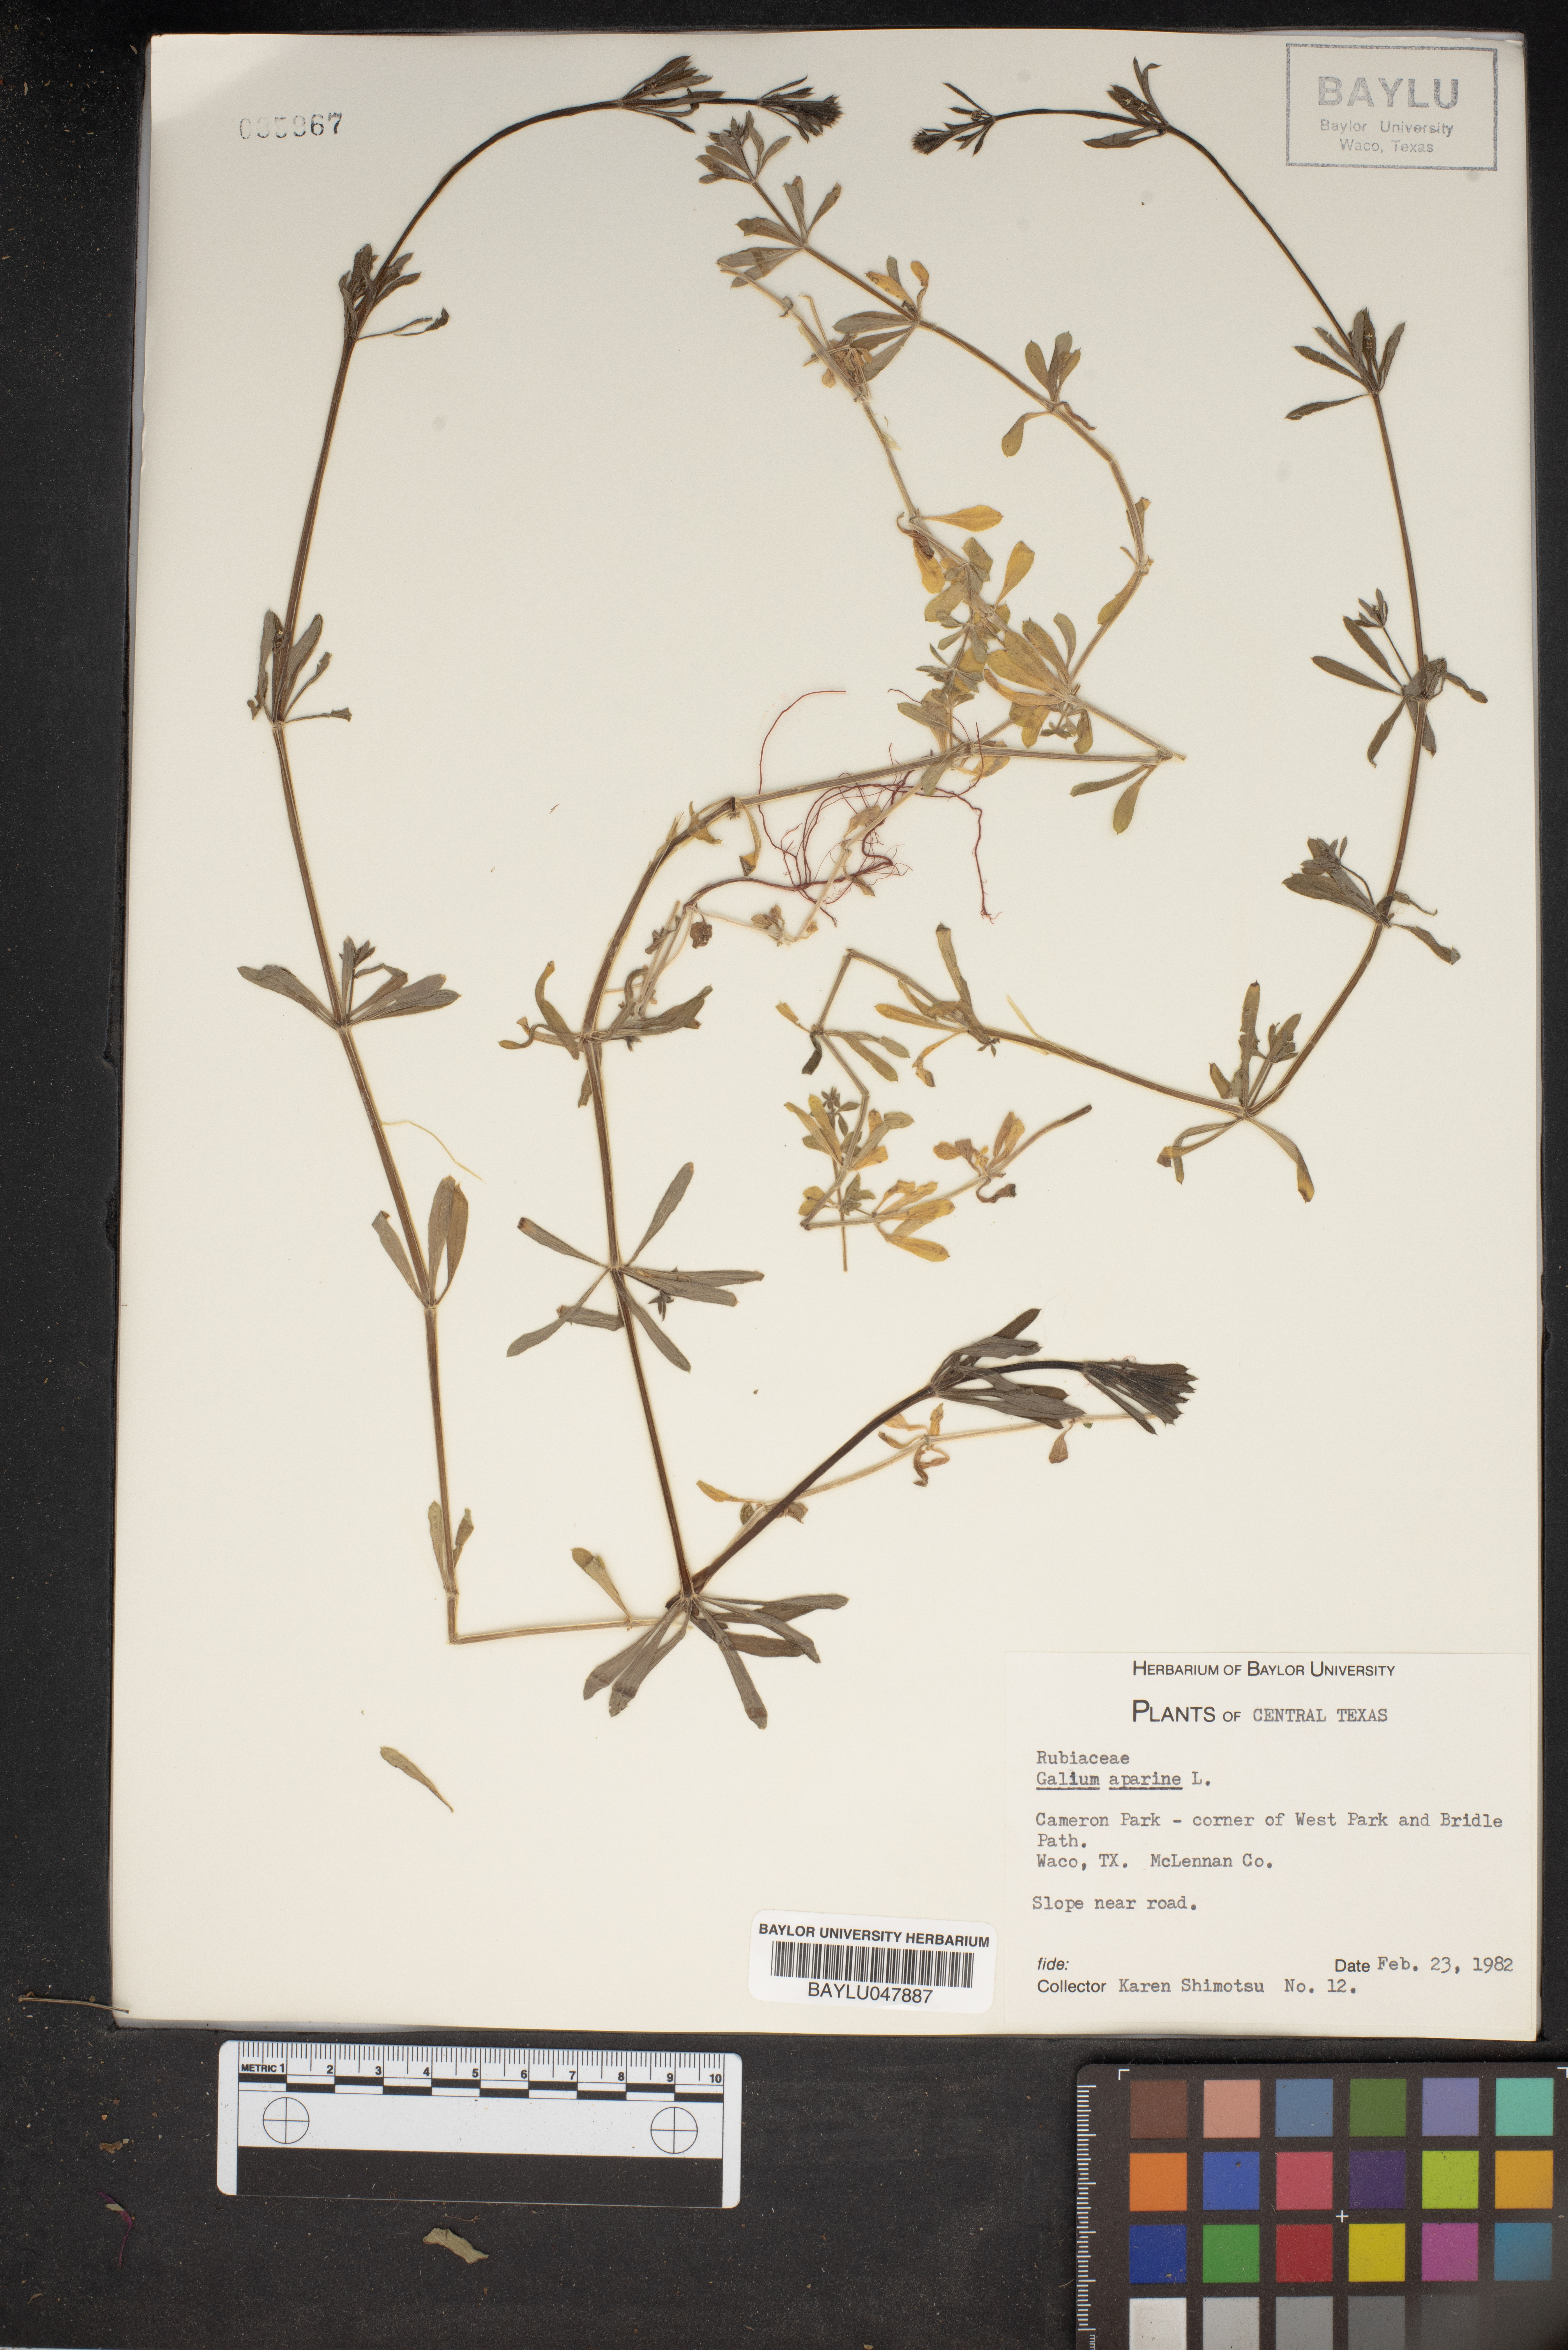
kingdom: Plantae
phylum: Tracheophyta
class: Magnoliopsida
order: Gentianales
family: Rubiaceae
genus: Galium
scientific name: Galium aparine
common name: Cleavers
